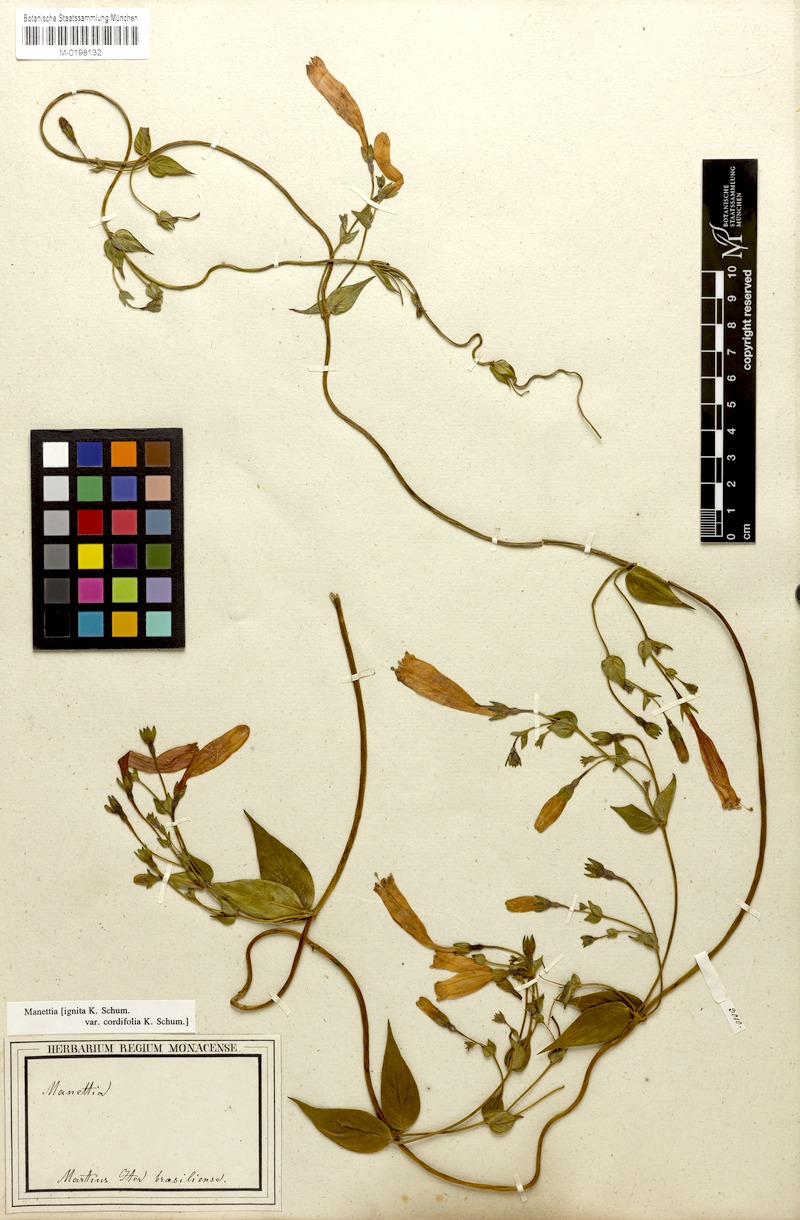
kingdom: Plantae
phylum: Tracheophyta
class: Magnoliopsida
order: Gentianales
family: Rubiaceae
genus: Manettia
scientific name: Manettia cordifolia
